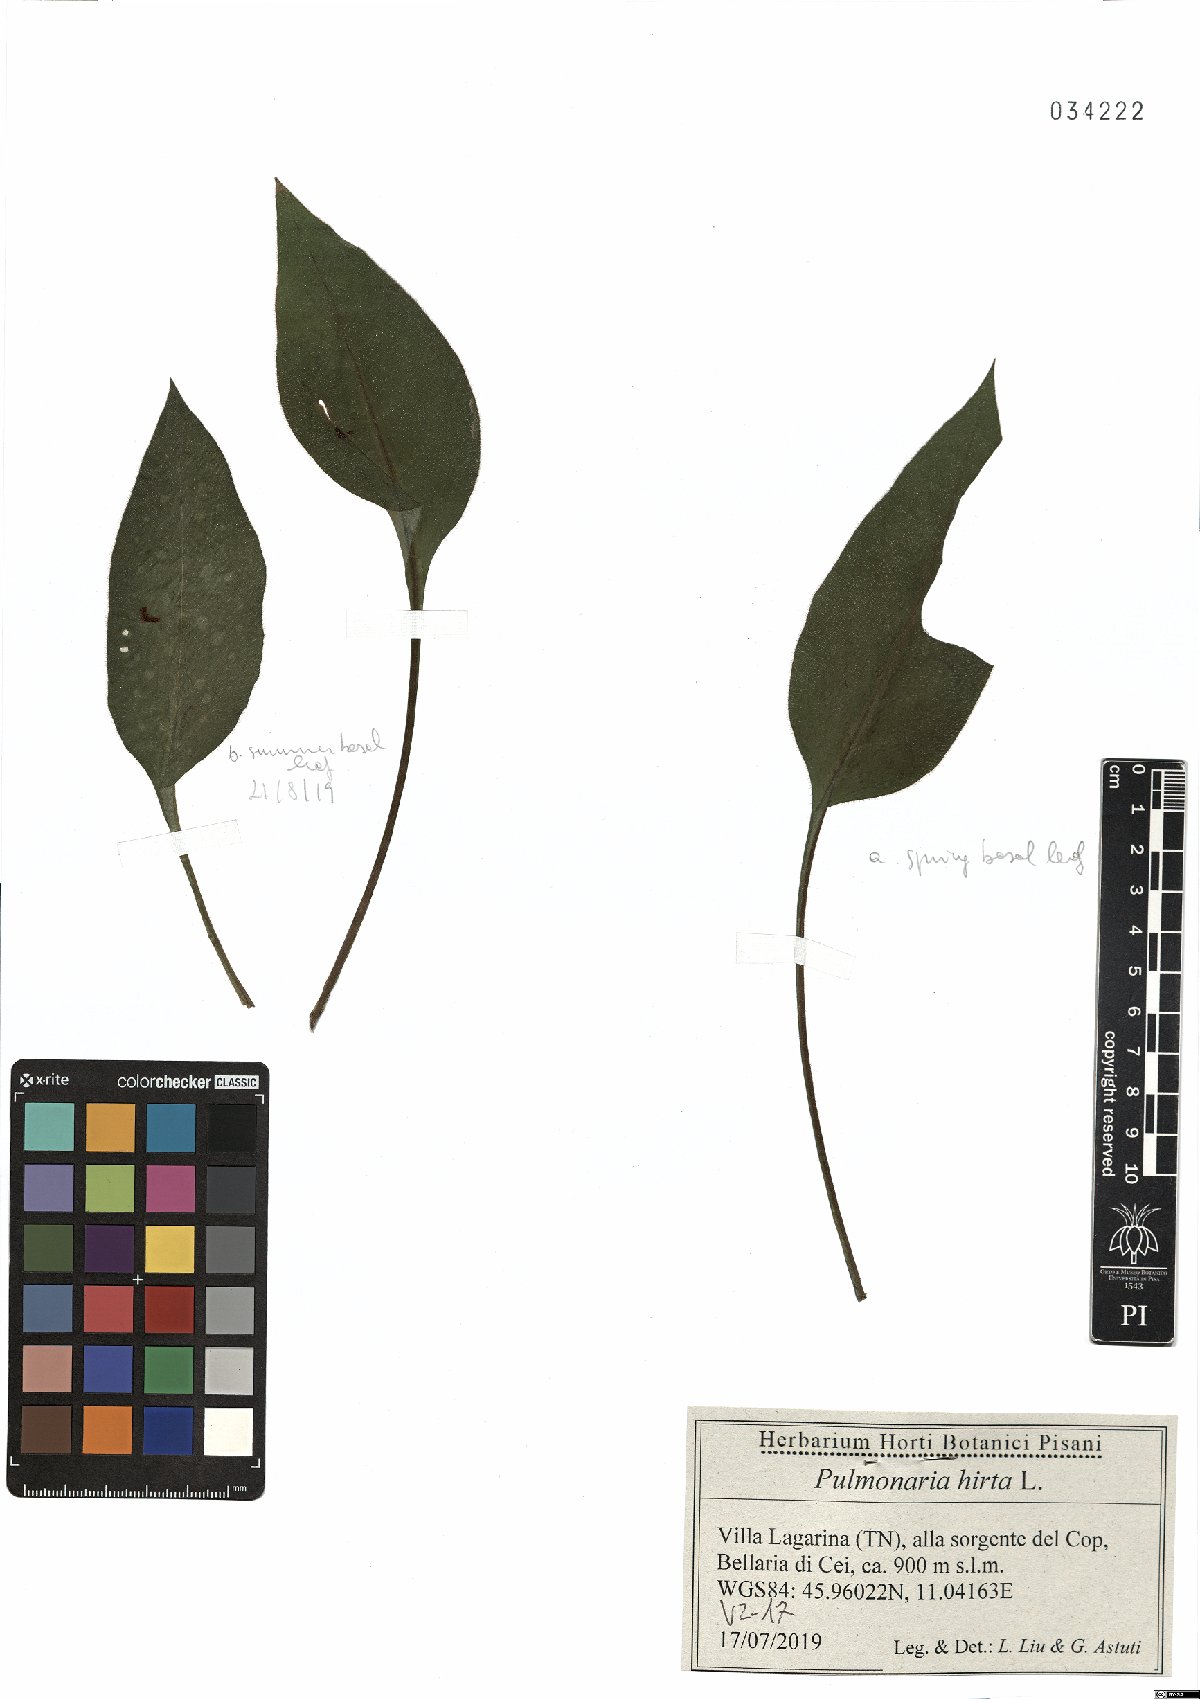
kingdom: Plantae
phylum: Tracheophyta
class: Magnoliopsida
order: Boraginales
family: Boraginaceae
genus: Pulmonaria
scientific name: Pulmonaria hirta
